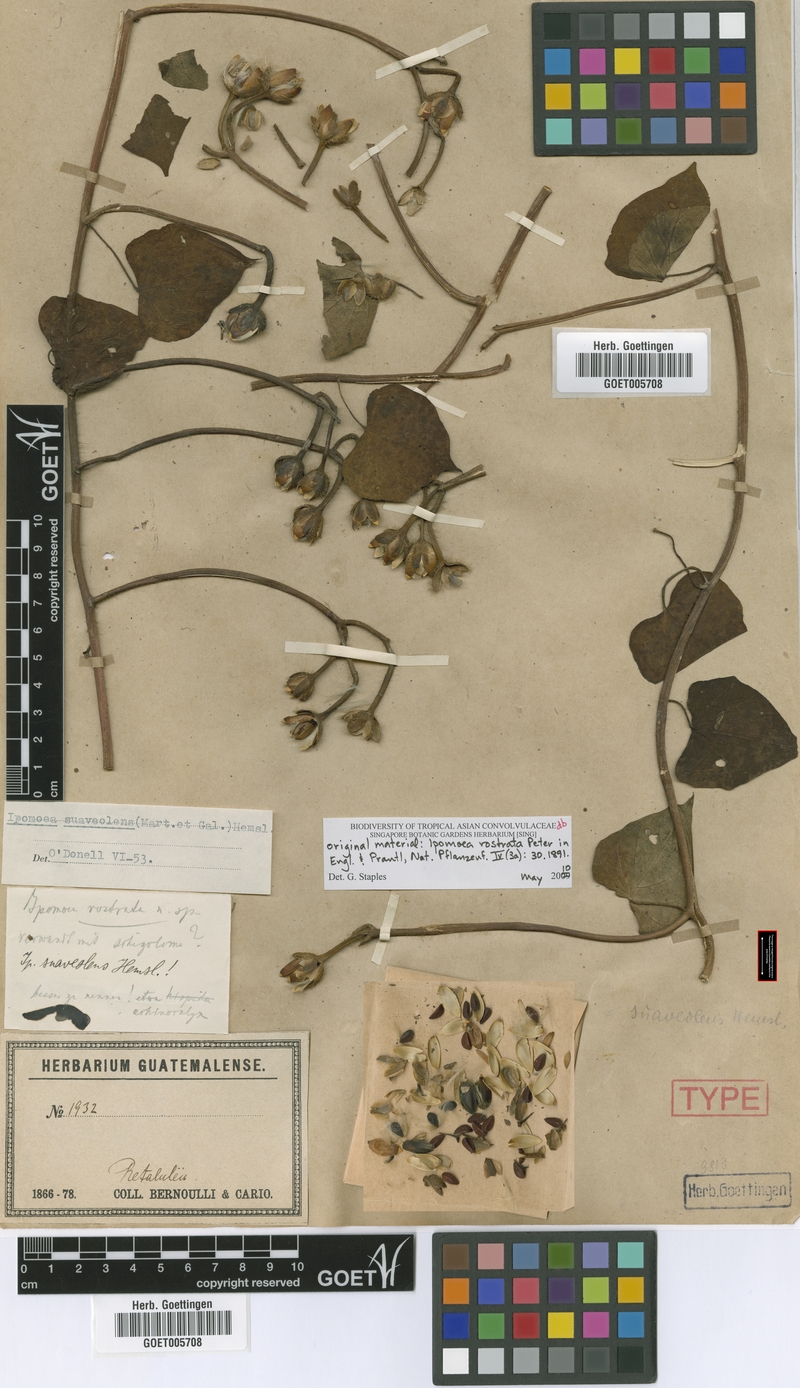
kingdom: Plantae
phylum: Tracheophyta
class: Magnoliopsida
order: Solanales
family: Convolvulaceae
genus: Ipomoea
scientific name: Ipomoea suaveolens
